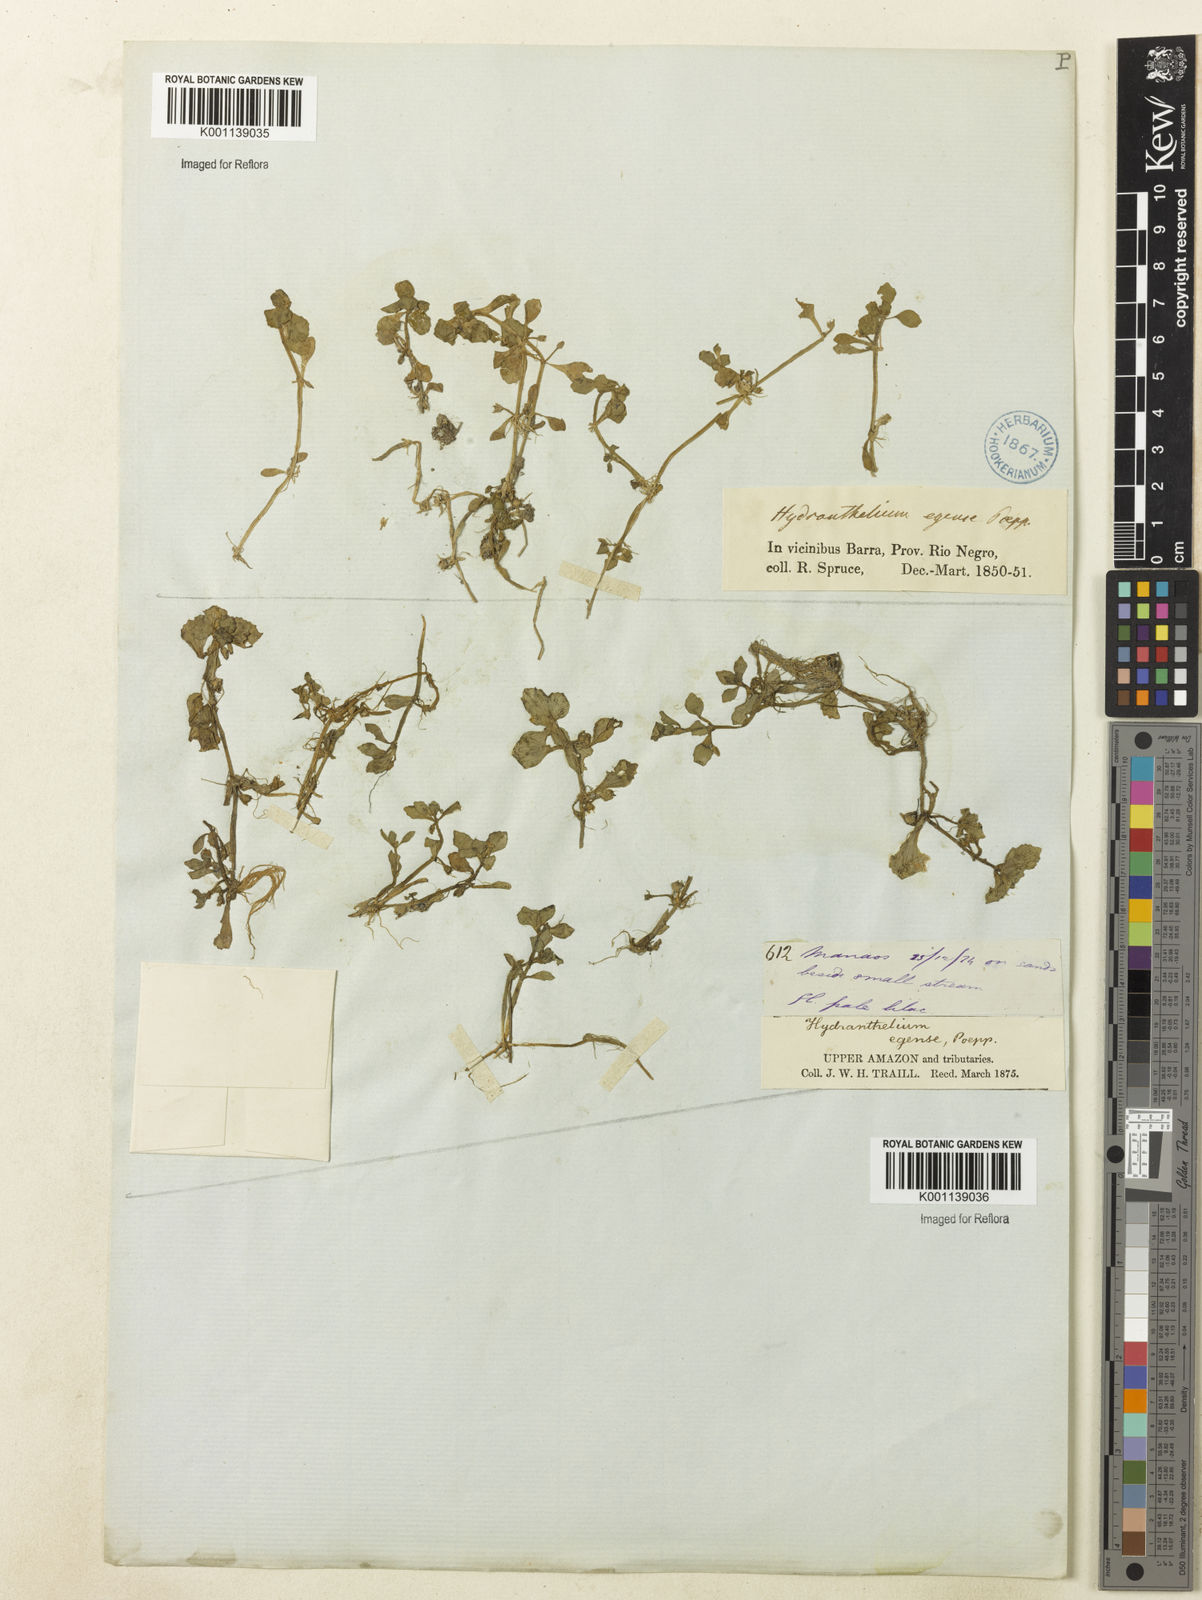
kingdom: Plantae
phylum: Tracheophyta
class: Magnoliopsida
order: Lamiales
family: Plantaginaceae
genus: Bacopa
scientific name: Bacopa egensis
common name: Brazilian waterhyssop
